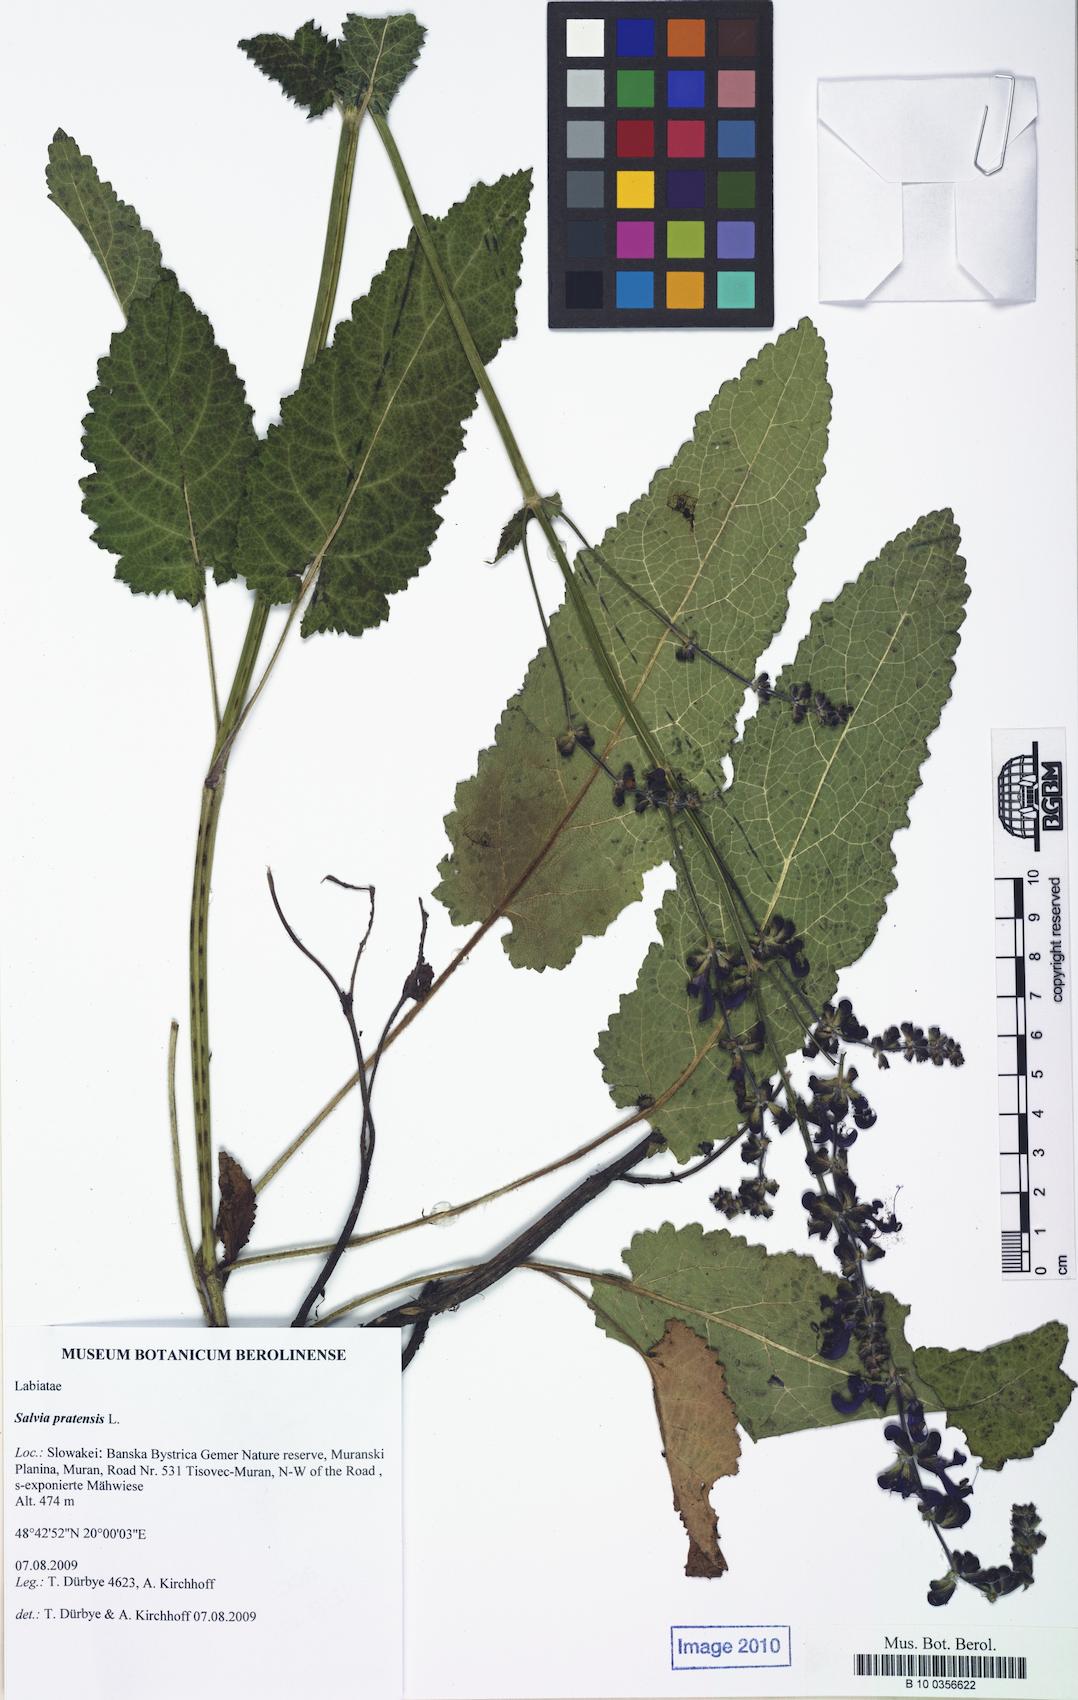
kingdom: Plantae
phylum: Tracheophyta
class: Magnoliopsida
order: Lamiales
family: Lamiaceae
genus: Salvia
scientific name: Salvia pratensis
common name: Meadow sage
